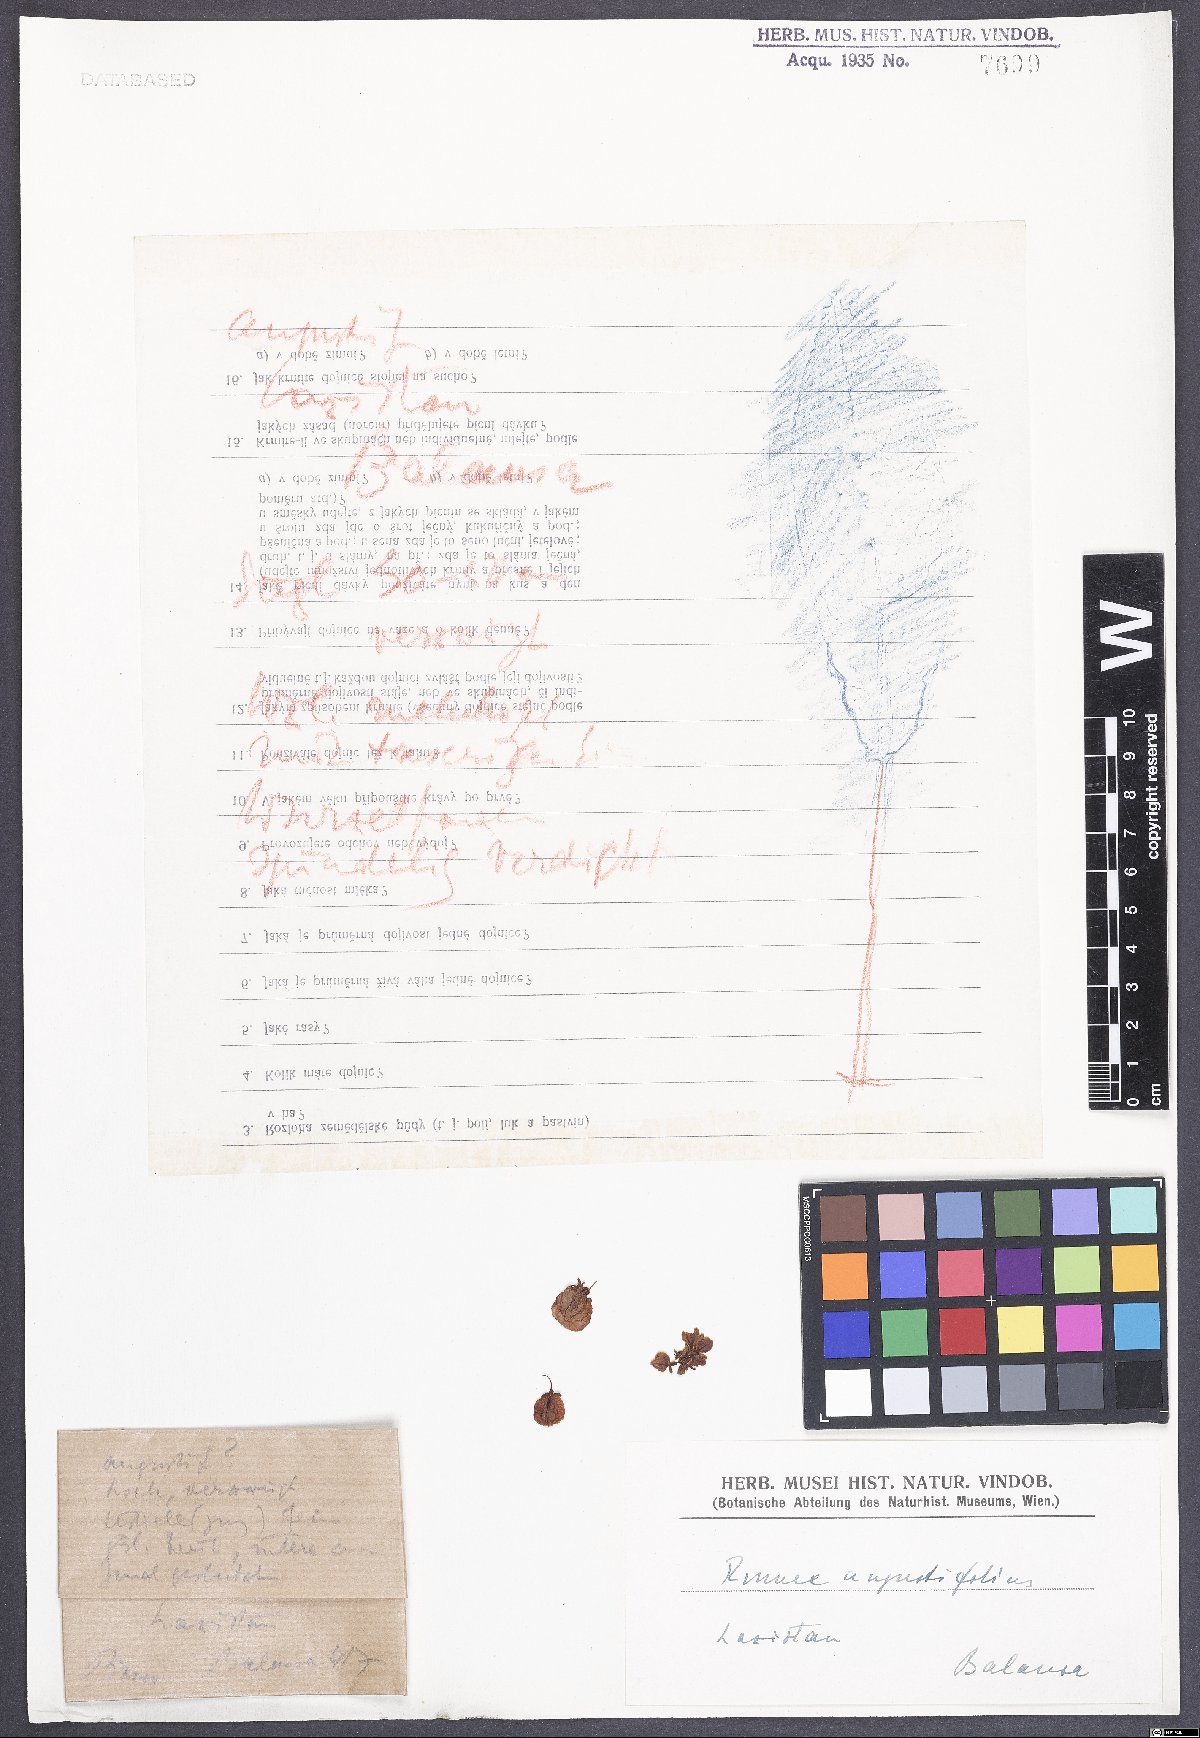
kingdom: Plantae
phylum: Tracheophyta
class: Magnoliopsida
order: Caryophyllales
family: Polygonaceae
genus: Rumex
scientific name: Rumex angustifolius
